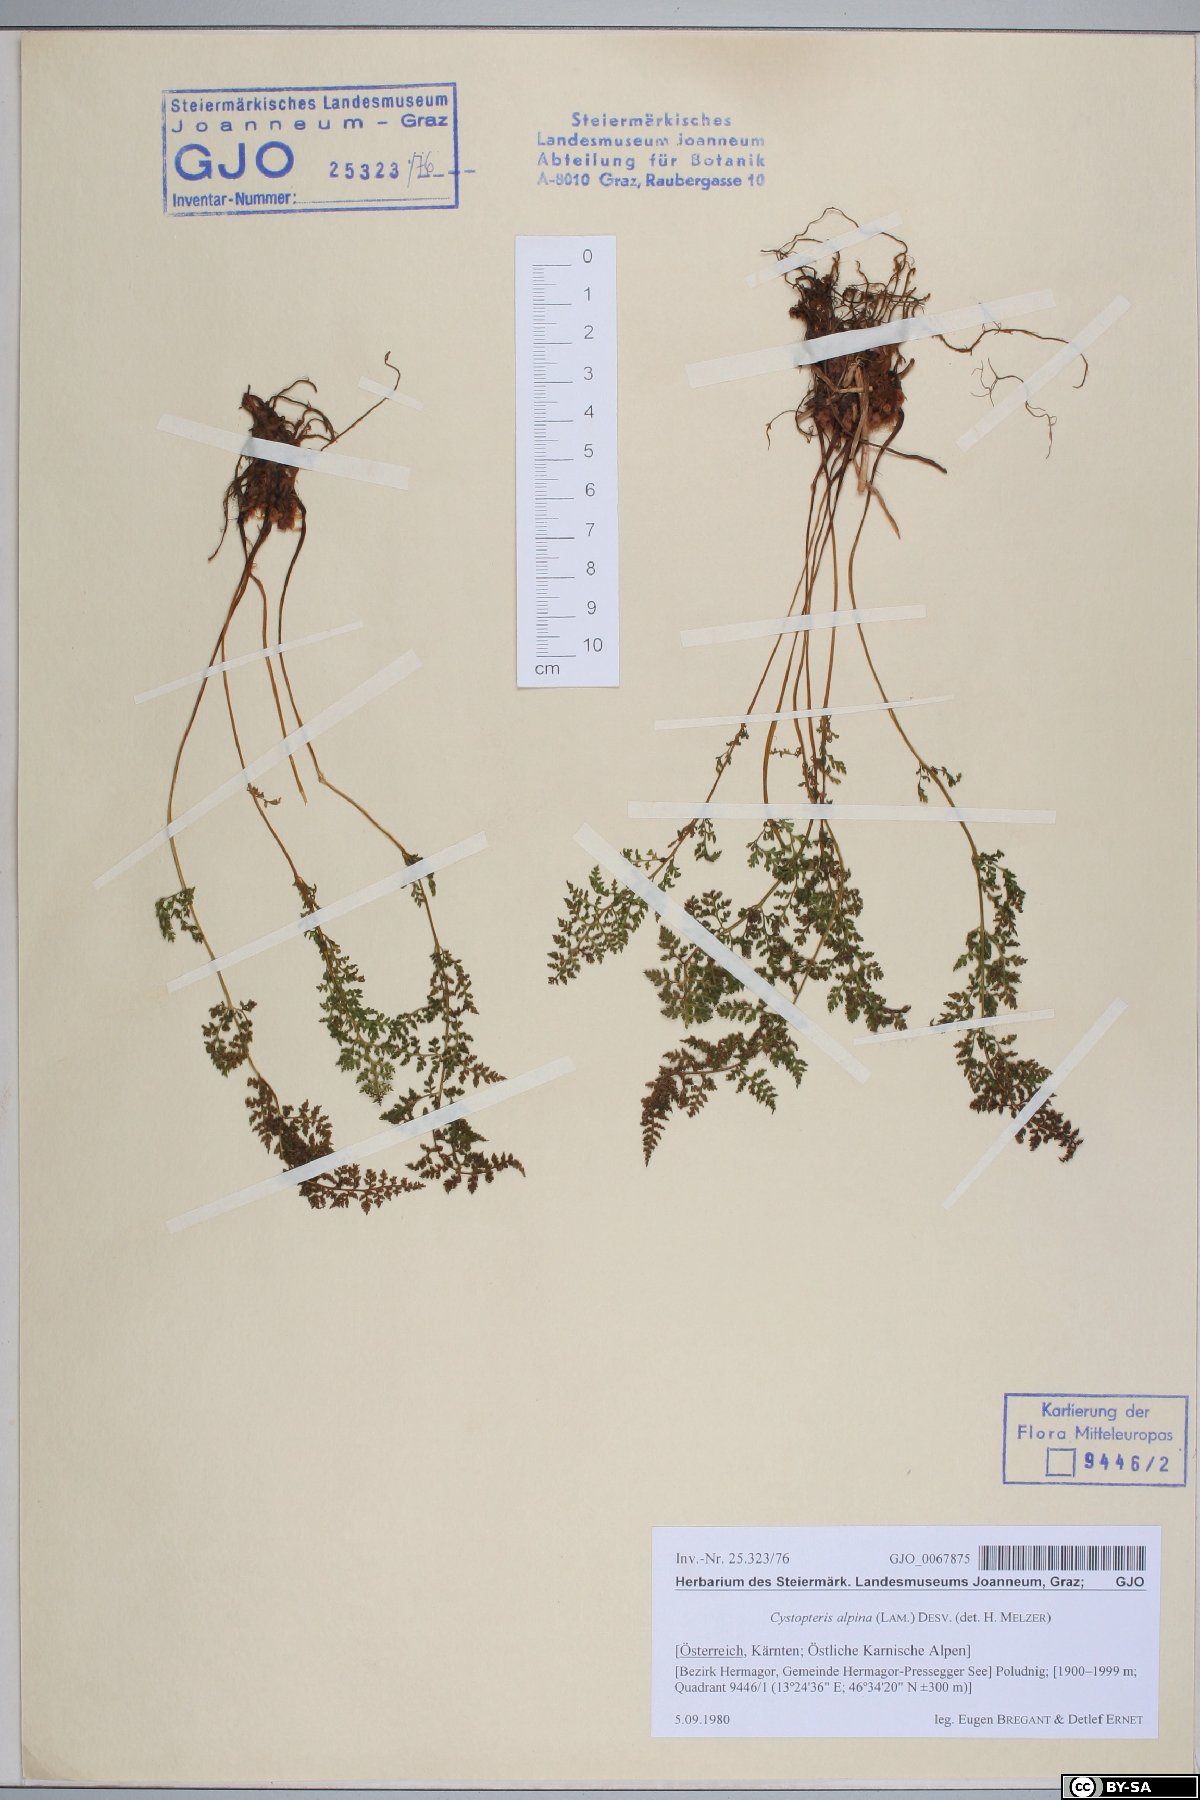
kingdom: Plantae
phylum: Tracheophyta
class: Polypodiopsida
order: Polypodiales
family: Cystopteridaceae
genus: Cystopteris
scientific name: Cystopteris alpina
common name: Alpine bladder-fern
